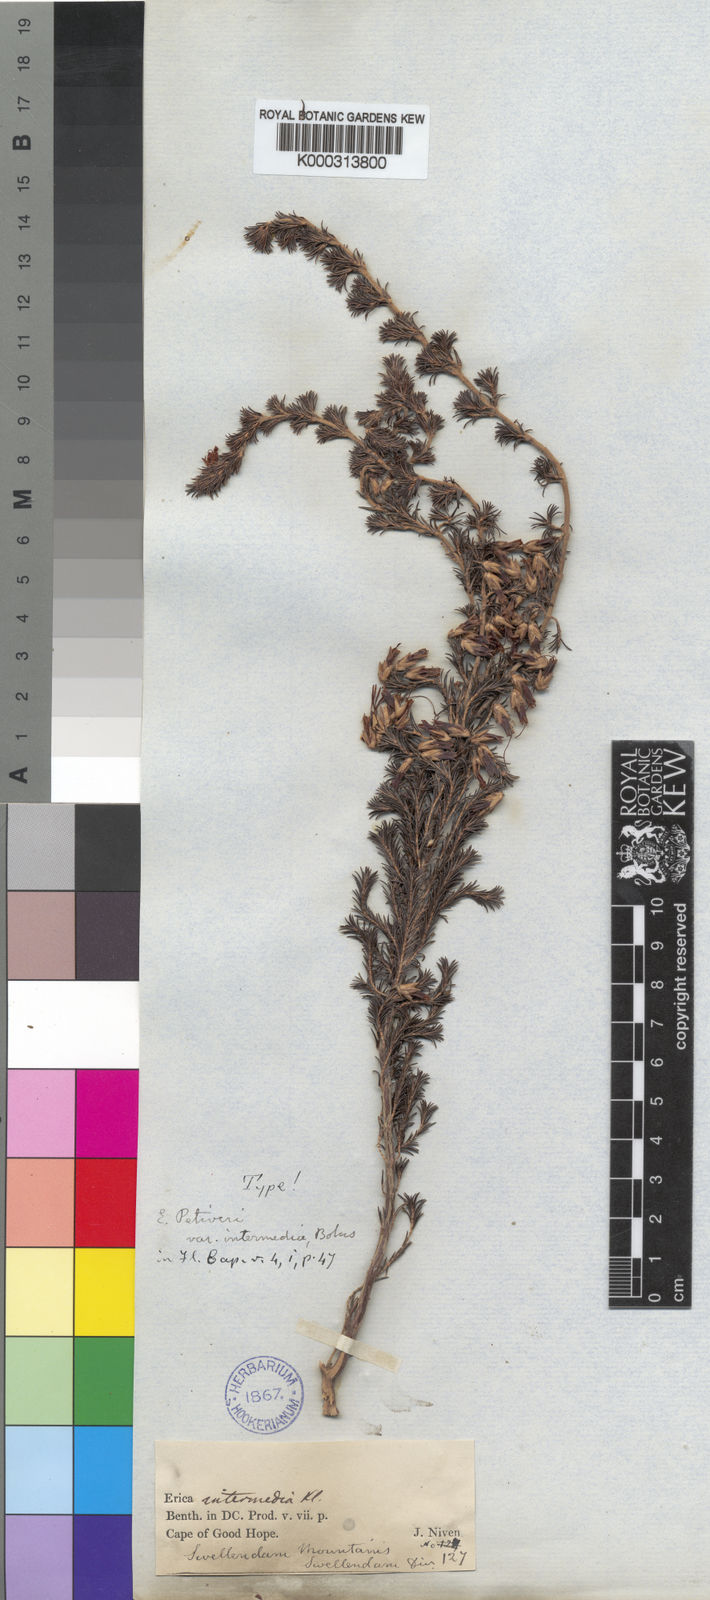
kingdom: Plantae
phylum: Tracheophyta
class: Magnoliopsida
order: Ericales
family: Ericaceae
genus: Erica
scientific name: Erica coccinea
